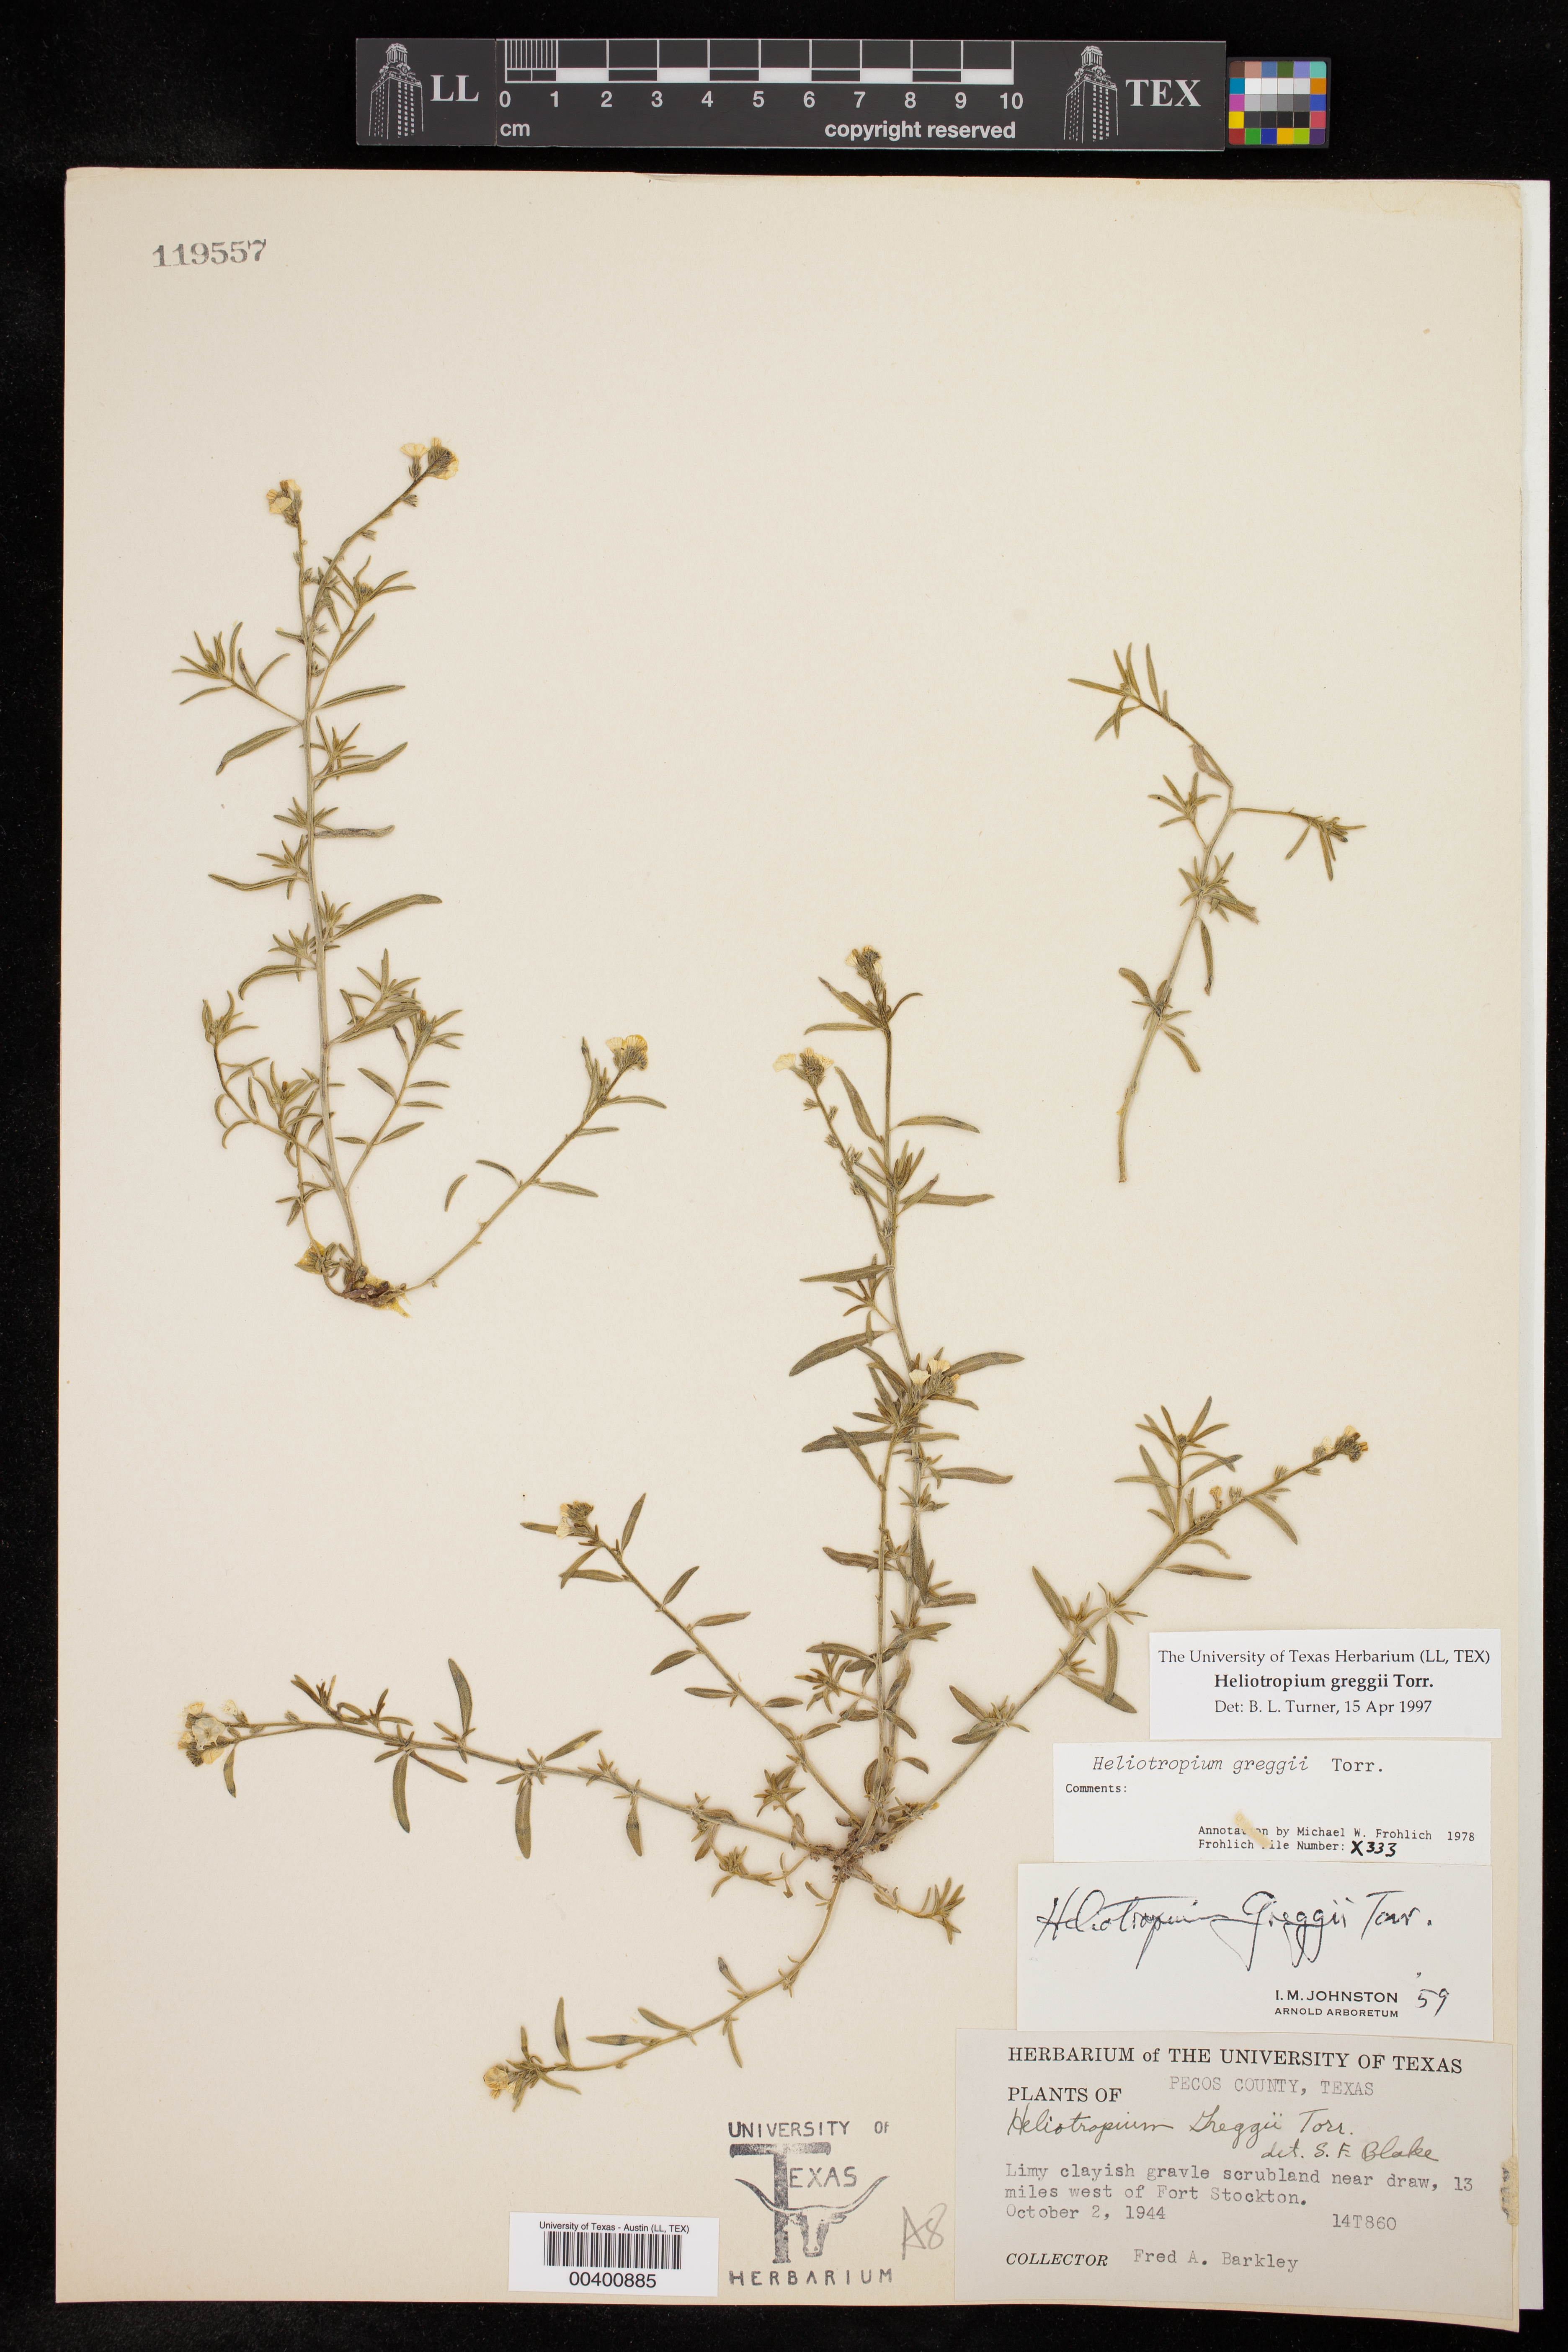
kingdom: Plantae
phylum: Tracheophyta
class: Magnoliopsida
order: Boraginales
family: Heliotropiaceae
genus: Euploca
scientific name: Euploca greggii
